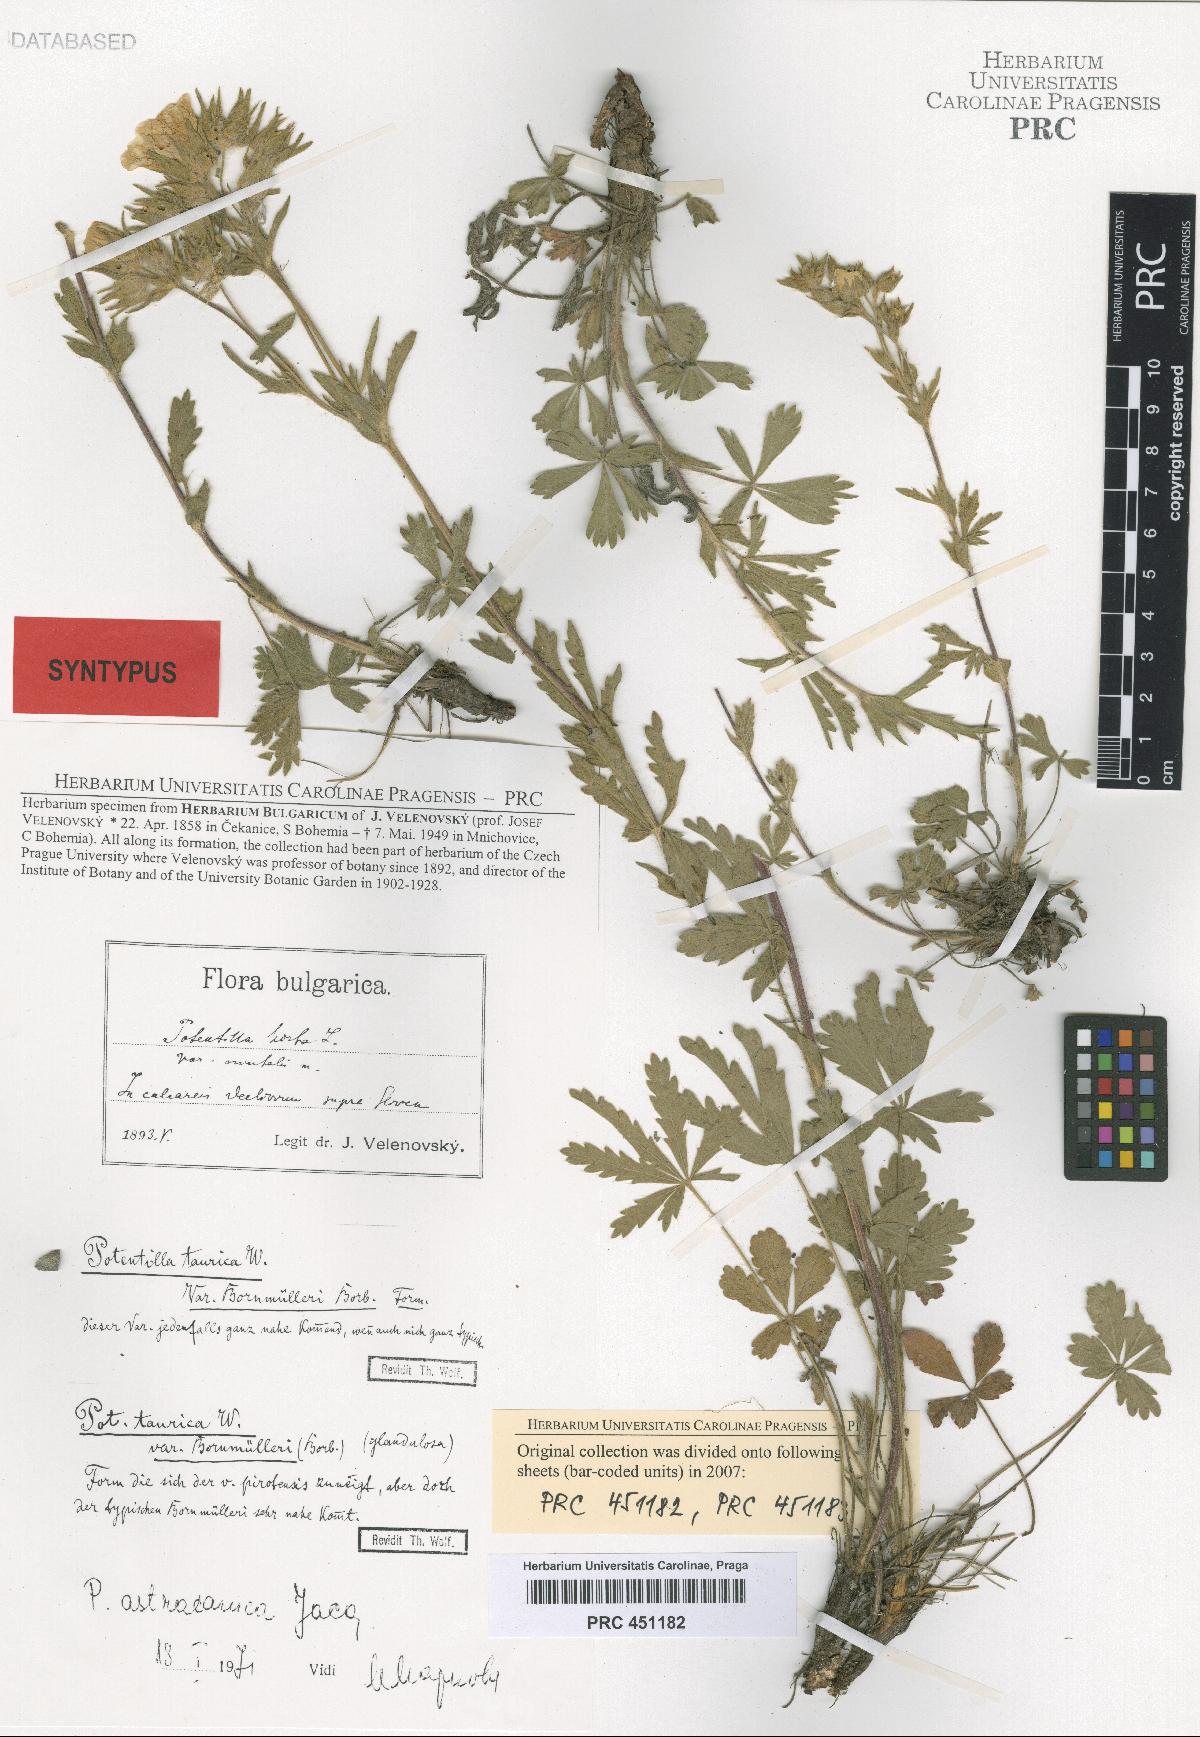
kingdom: Plantae
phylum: Tracheophyta
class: Magnoliopsida
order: Rosales
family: Rosaceae
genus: Potentilla
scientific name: Potentilla astracanica
